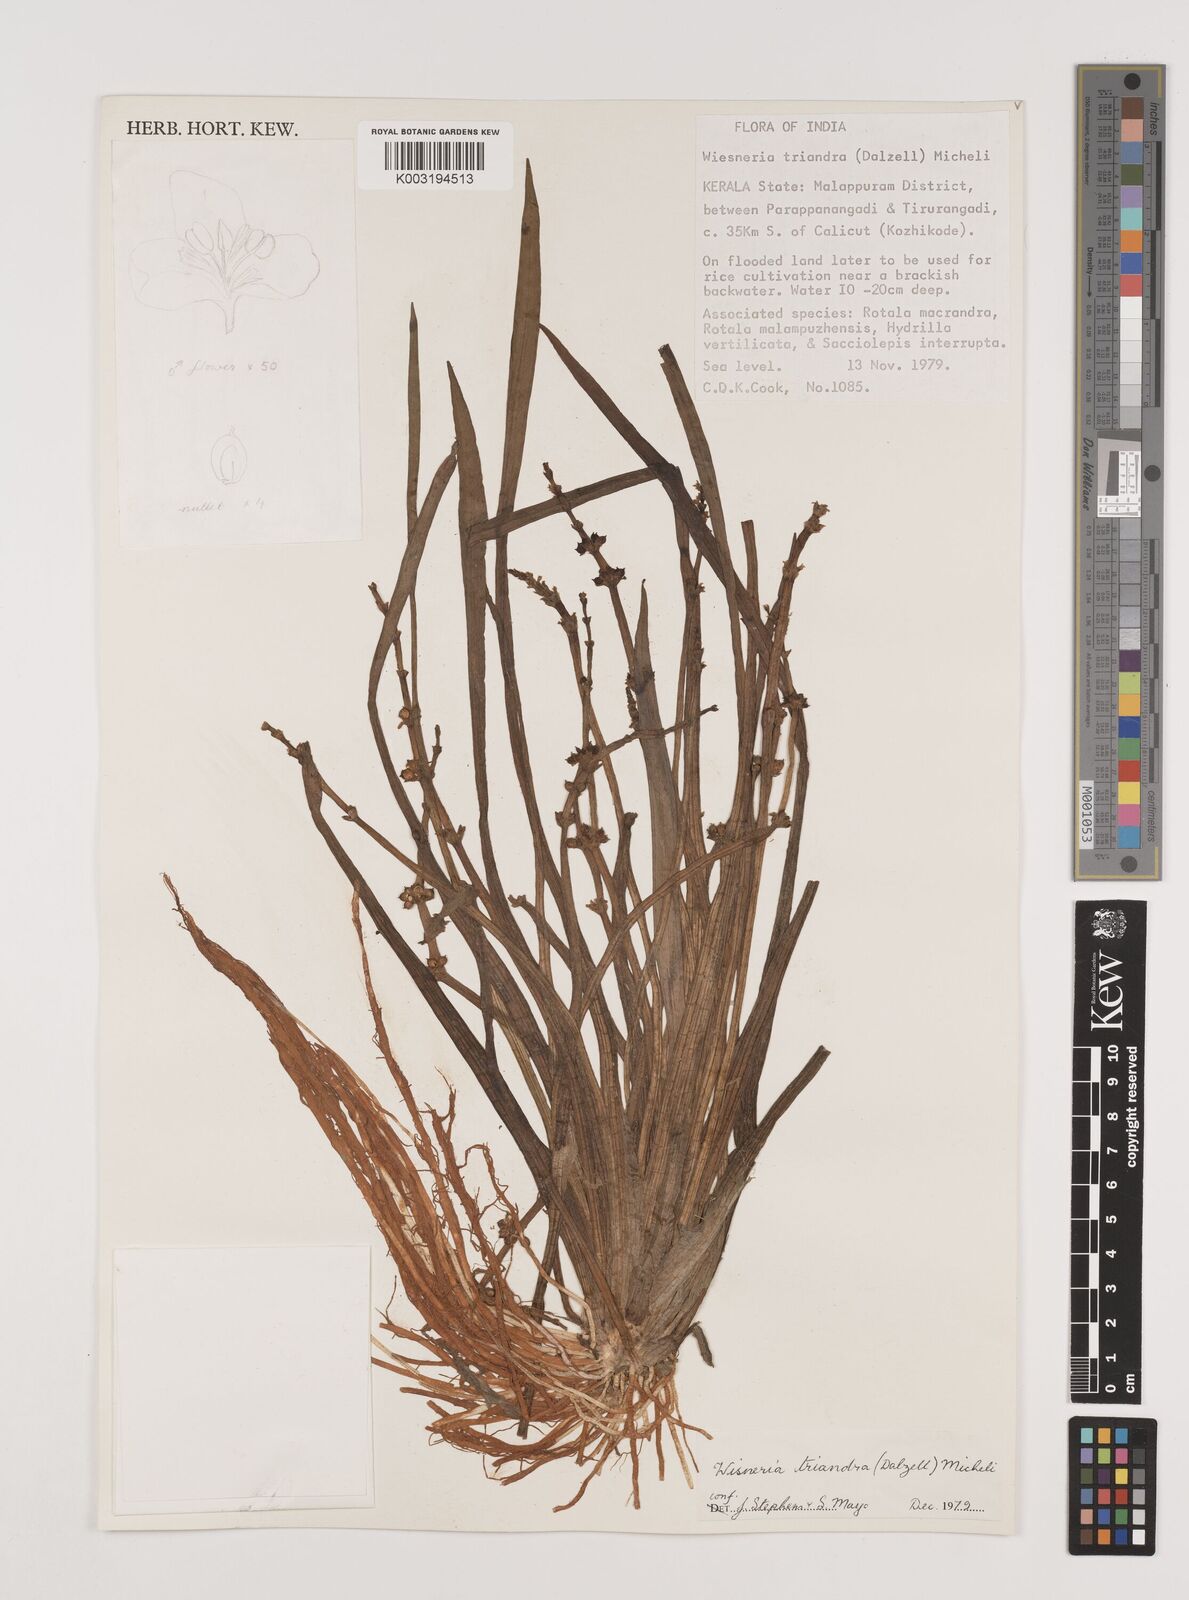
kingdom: Plantae
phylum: Tracheophyta
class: Liliopsida
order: Alismatales
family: Alismataceae
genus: Wiesneria
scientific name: Wiesneria triandra
